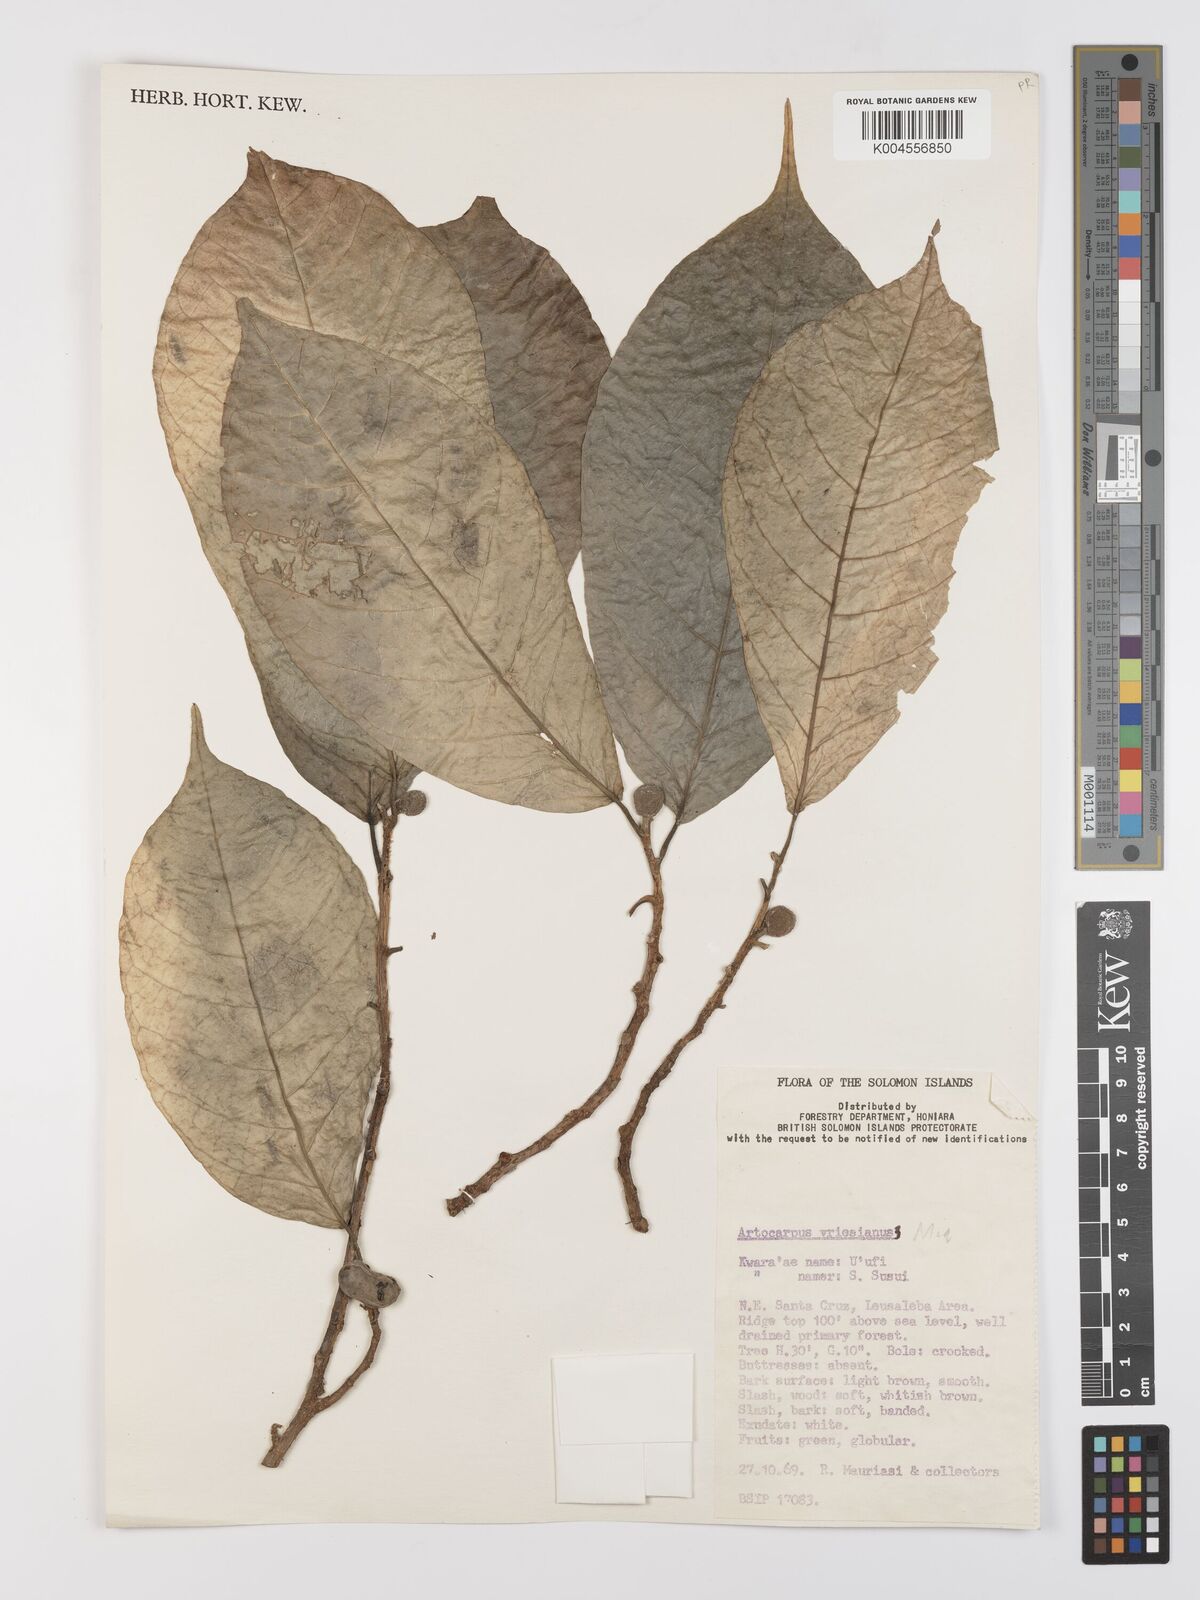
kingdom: Plantae
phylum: Tracheophyta
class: Magnoliopsida
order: Rosales
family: Moraceae
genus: Artocarpus
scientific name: Artocarpus vrieseanus
